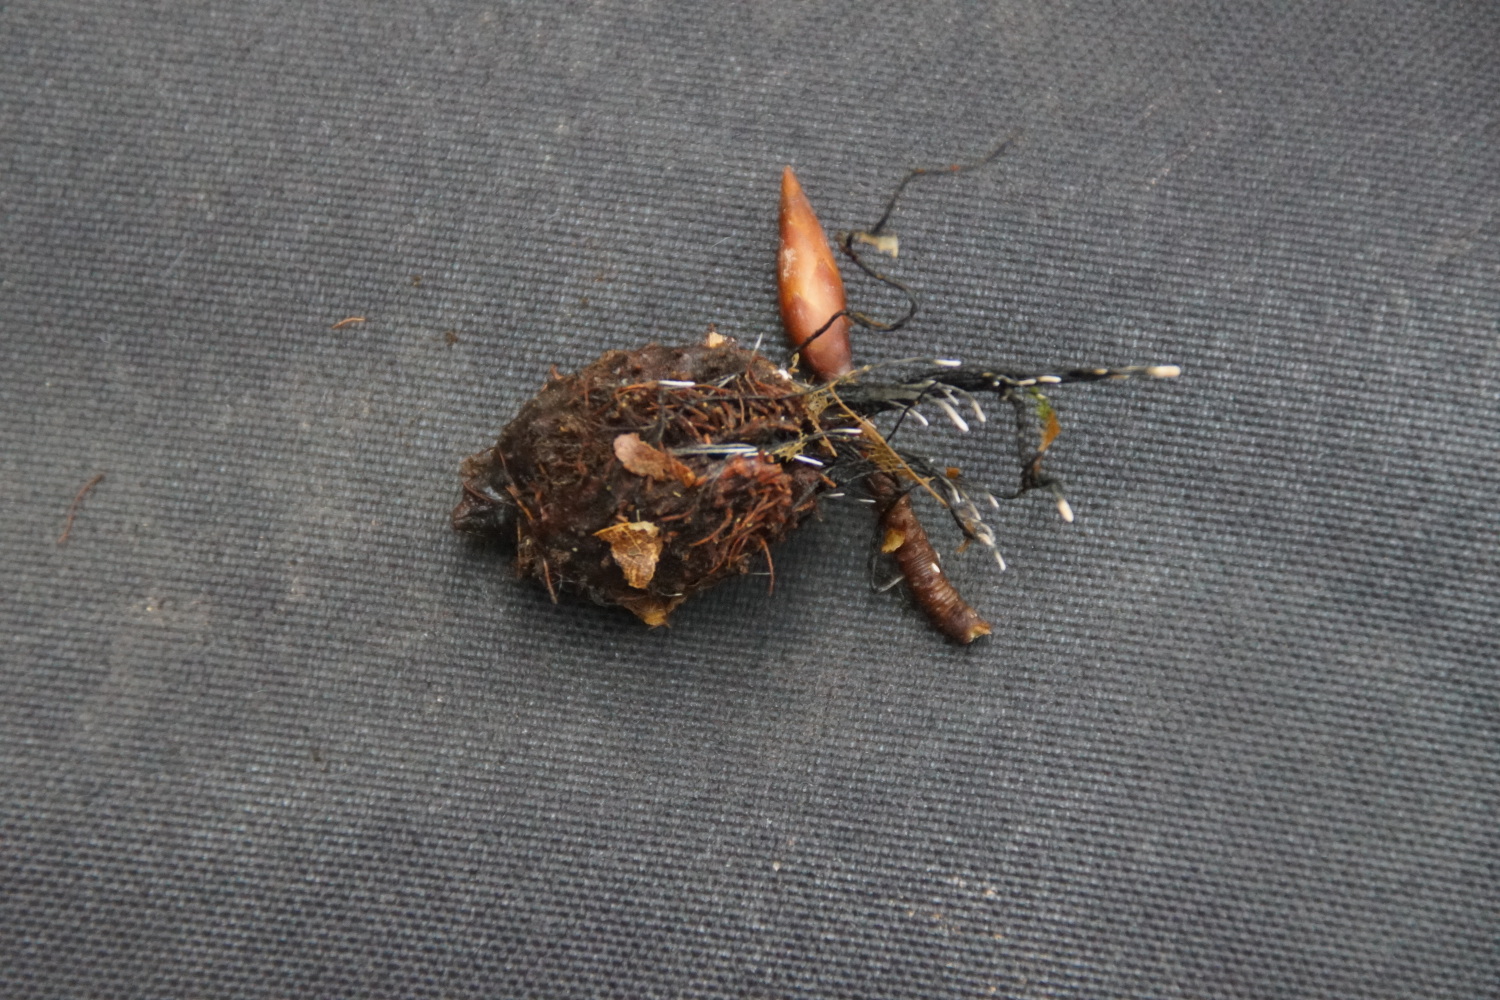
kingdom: Fungi
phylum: Ascomycota
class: Sordariomycetes
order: Xylariales
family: Xylariaceae
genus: Xylaria
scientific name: Xylaria carpophila
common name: bogskål-stødsvamp
